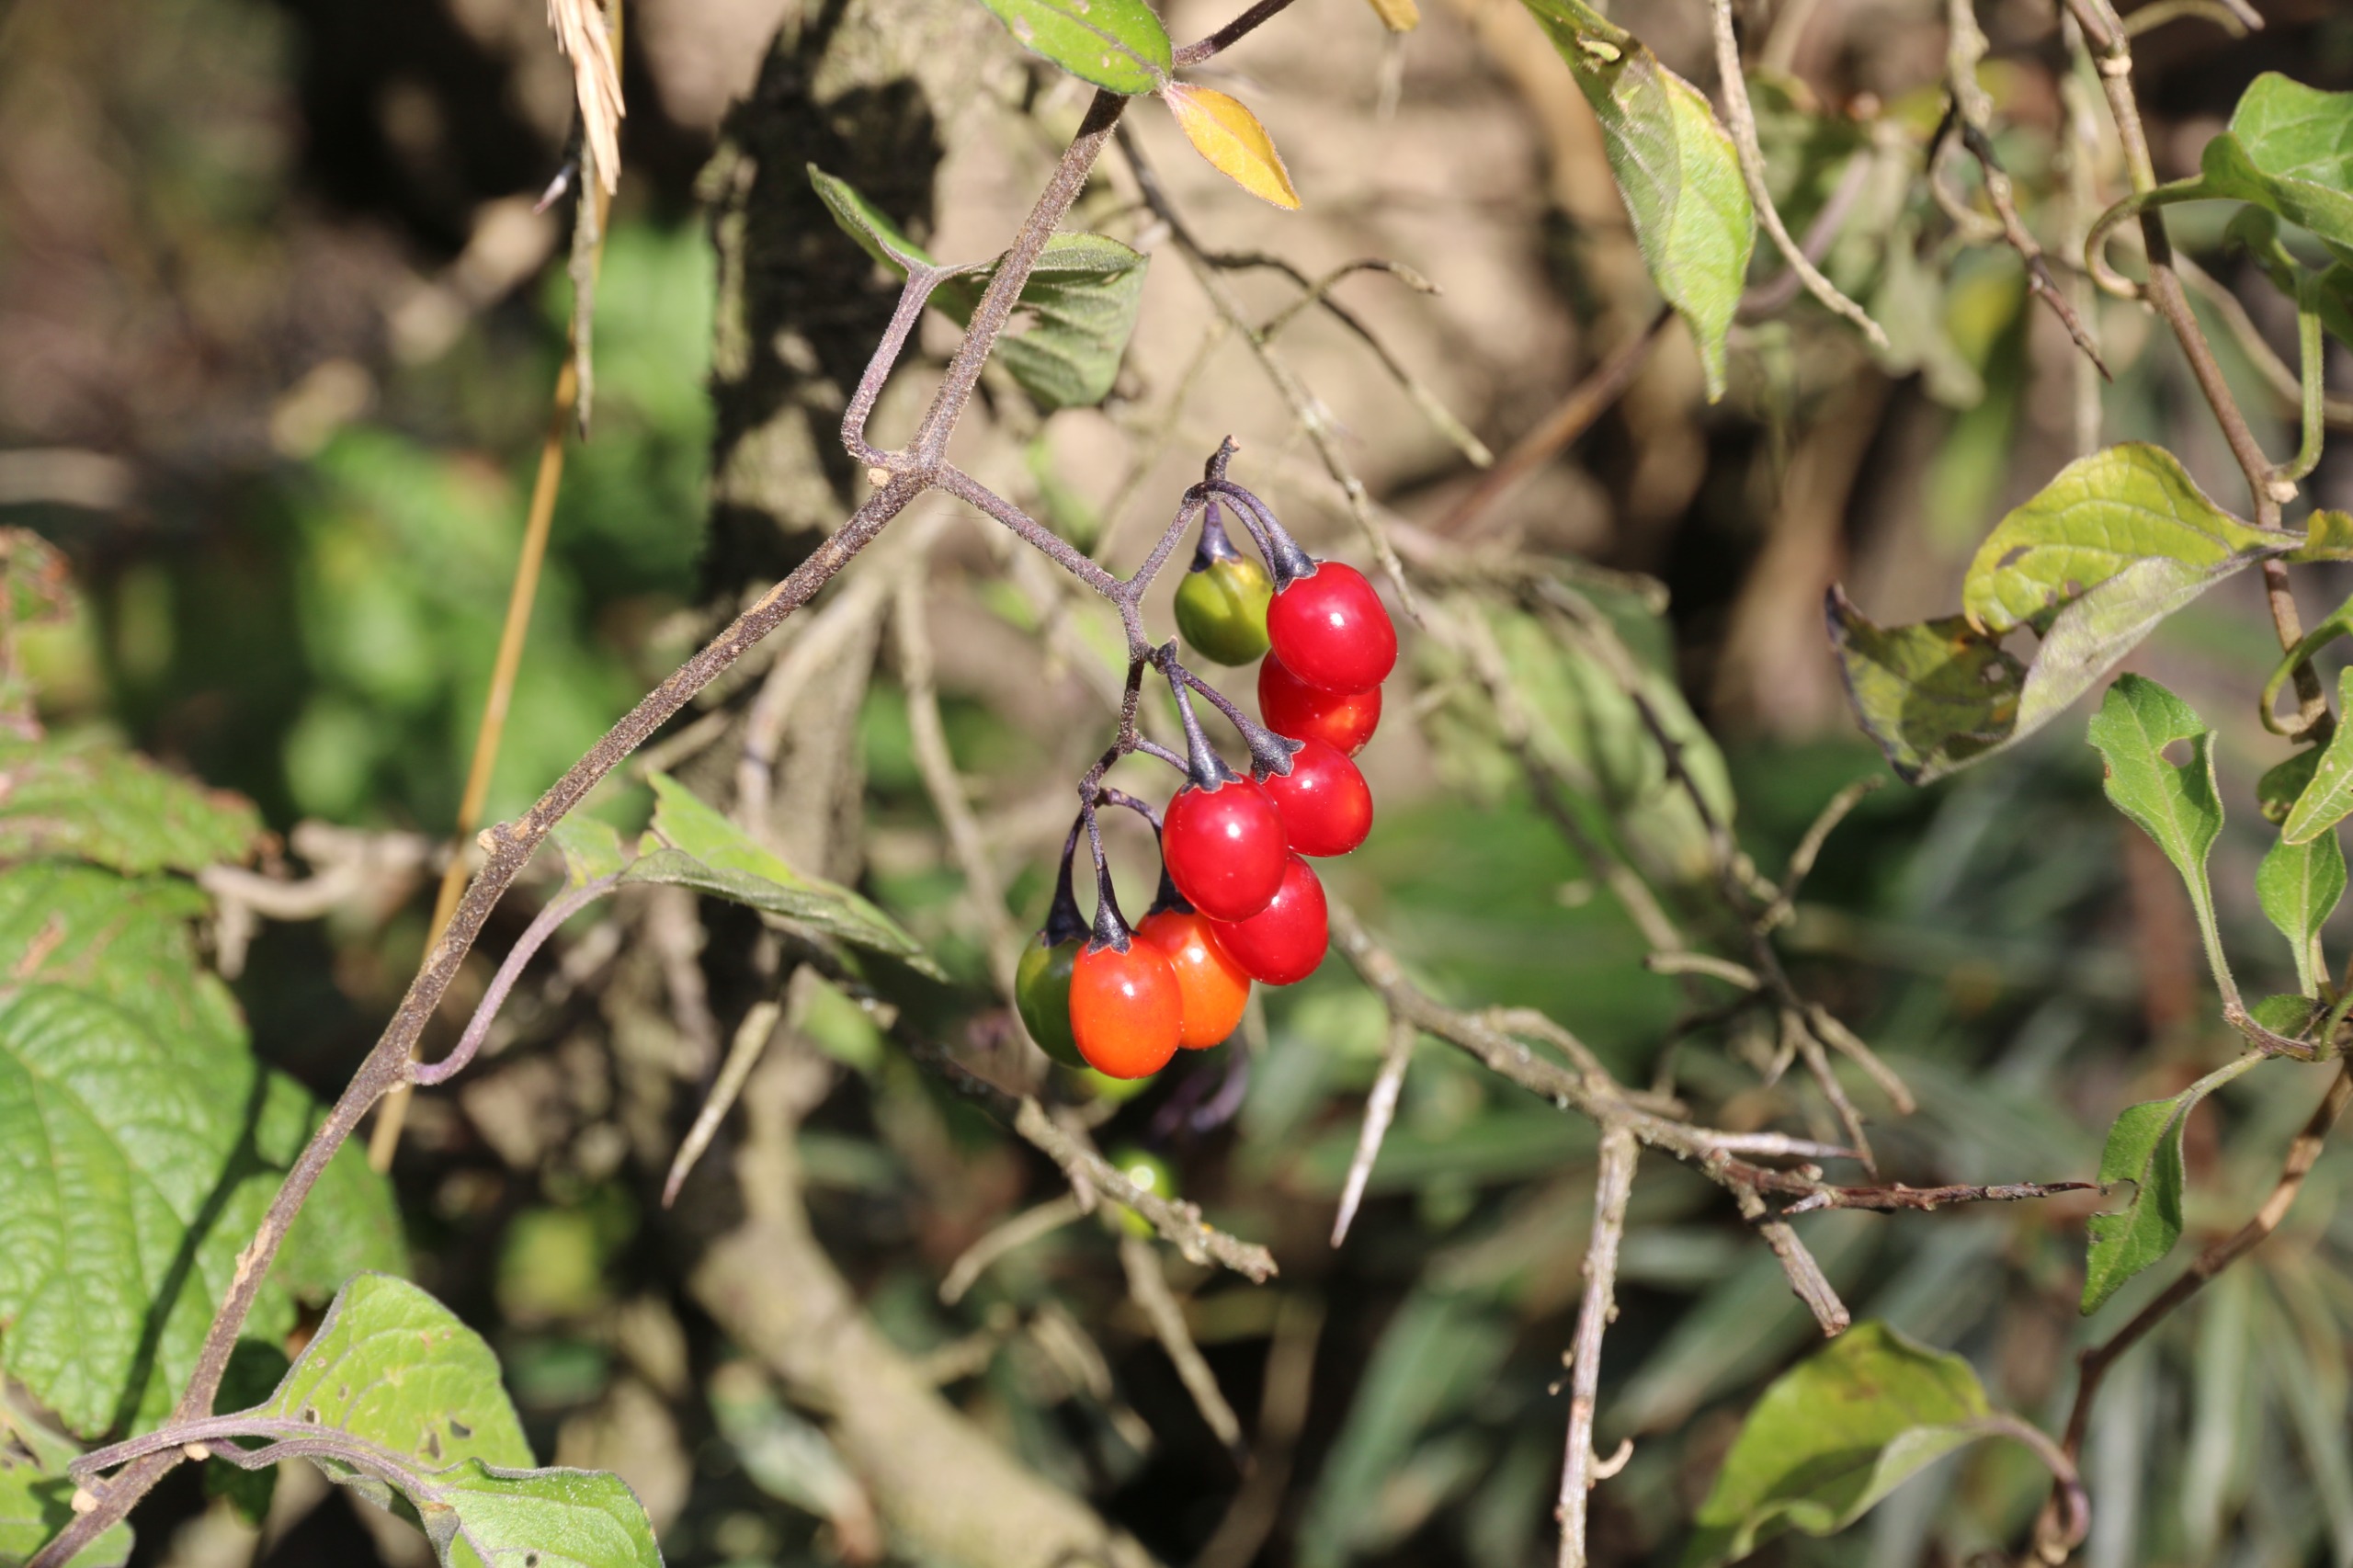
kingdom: Plantae
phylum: Tracheophyta
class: Magnoliopsida
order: Solanales
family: Solanaceae
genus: Solanum
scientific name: Solanum dulcamara
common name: Bittersød natskygge
